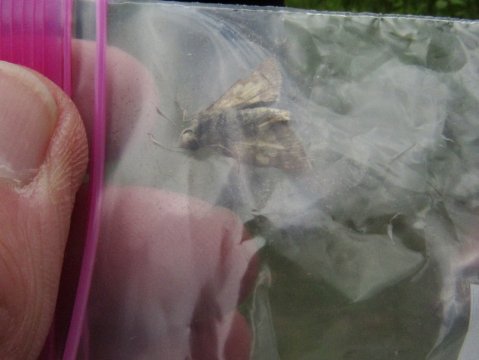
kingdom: Animalia
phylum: Arthropoda
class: Insecta
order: Lepidoptera
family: Hesperiidae
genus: Polites
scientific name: Polites coras
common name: Peck's Skipper
